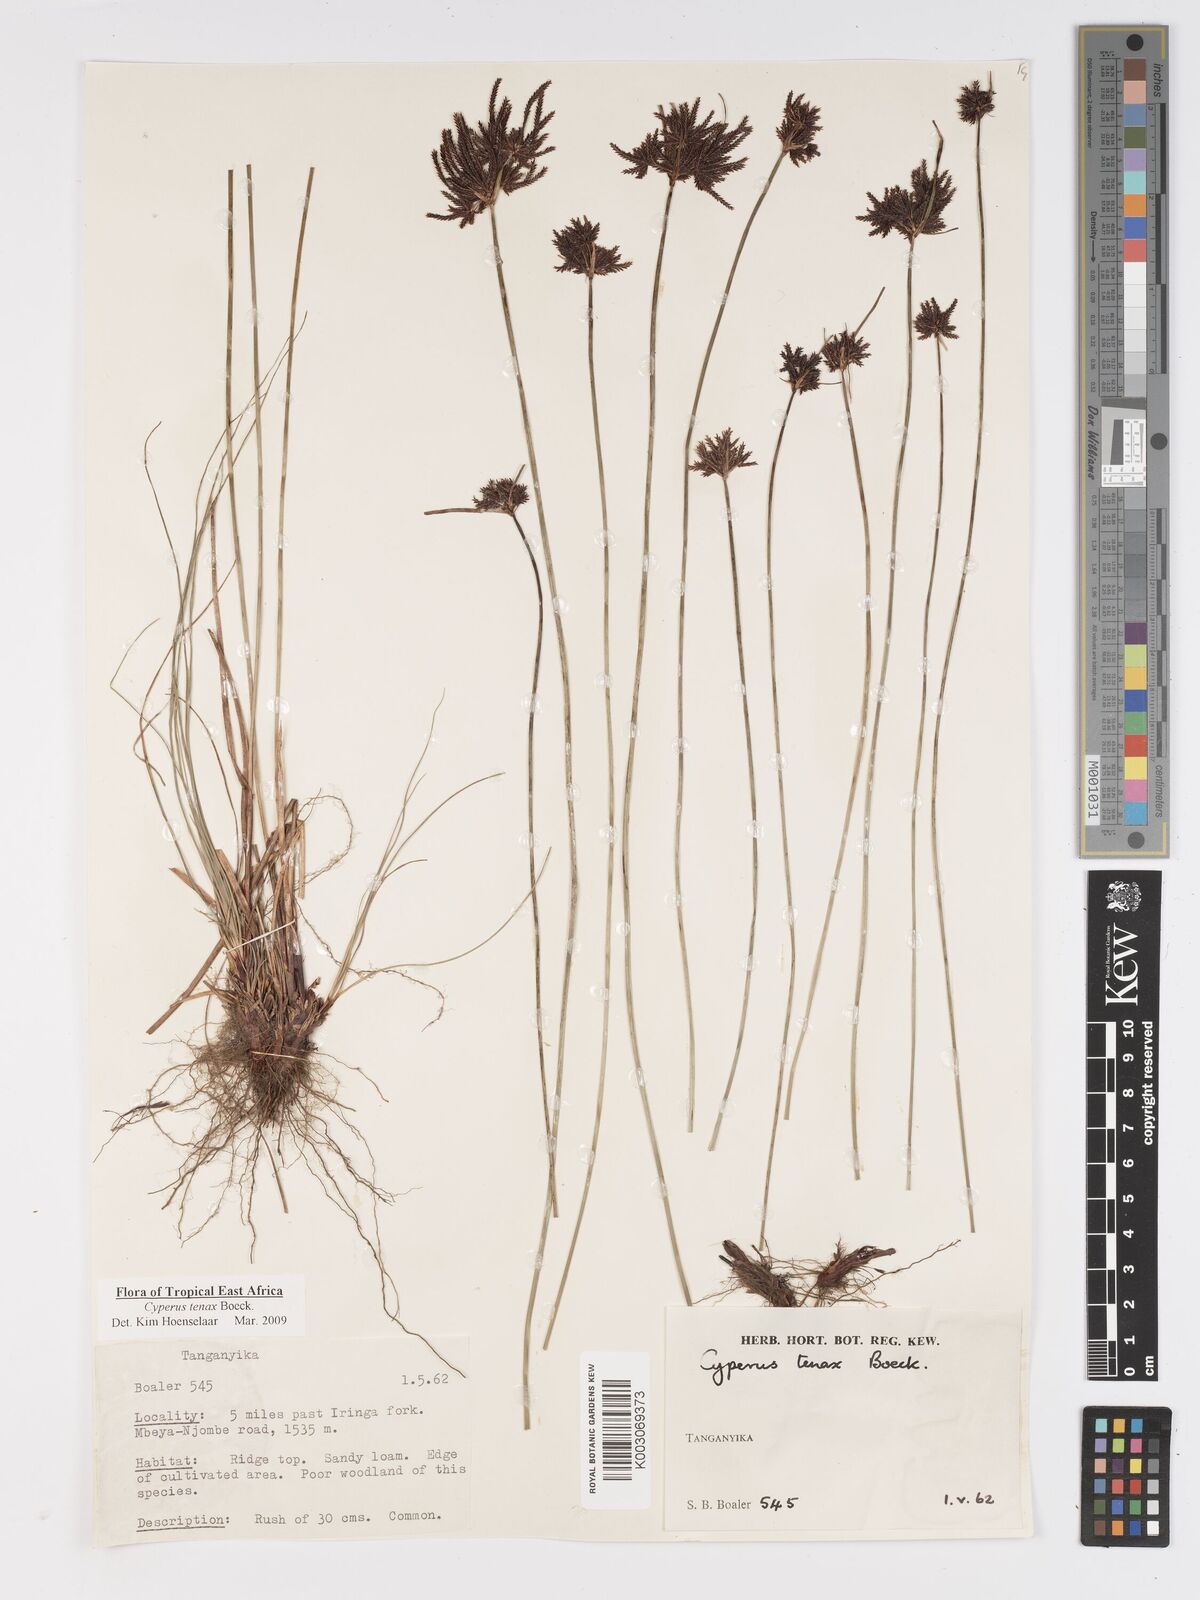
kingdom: Plantae
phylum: Tracheophyta
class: Liliopsida
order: Poales
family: Cyperaceae
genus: Cyperus
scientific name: Cyperus tenax
